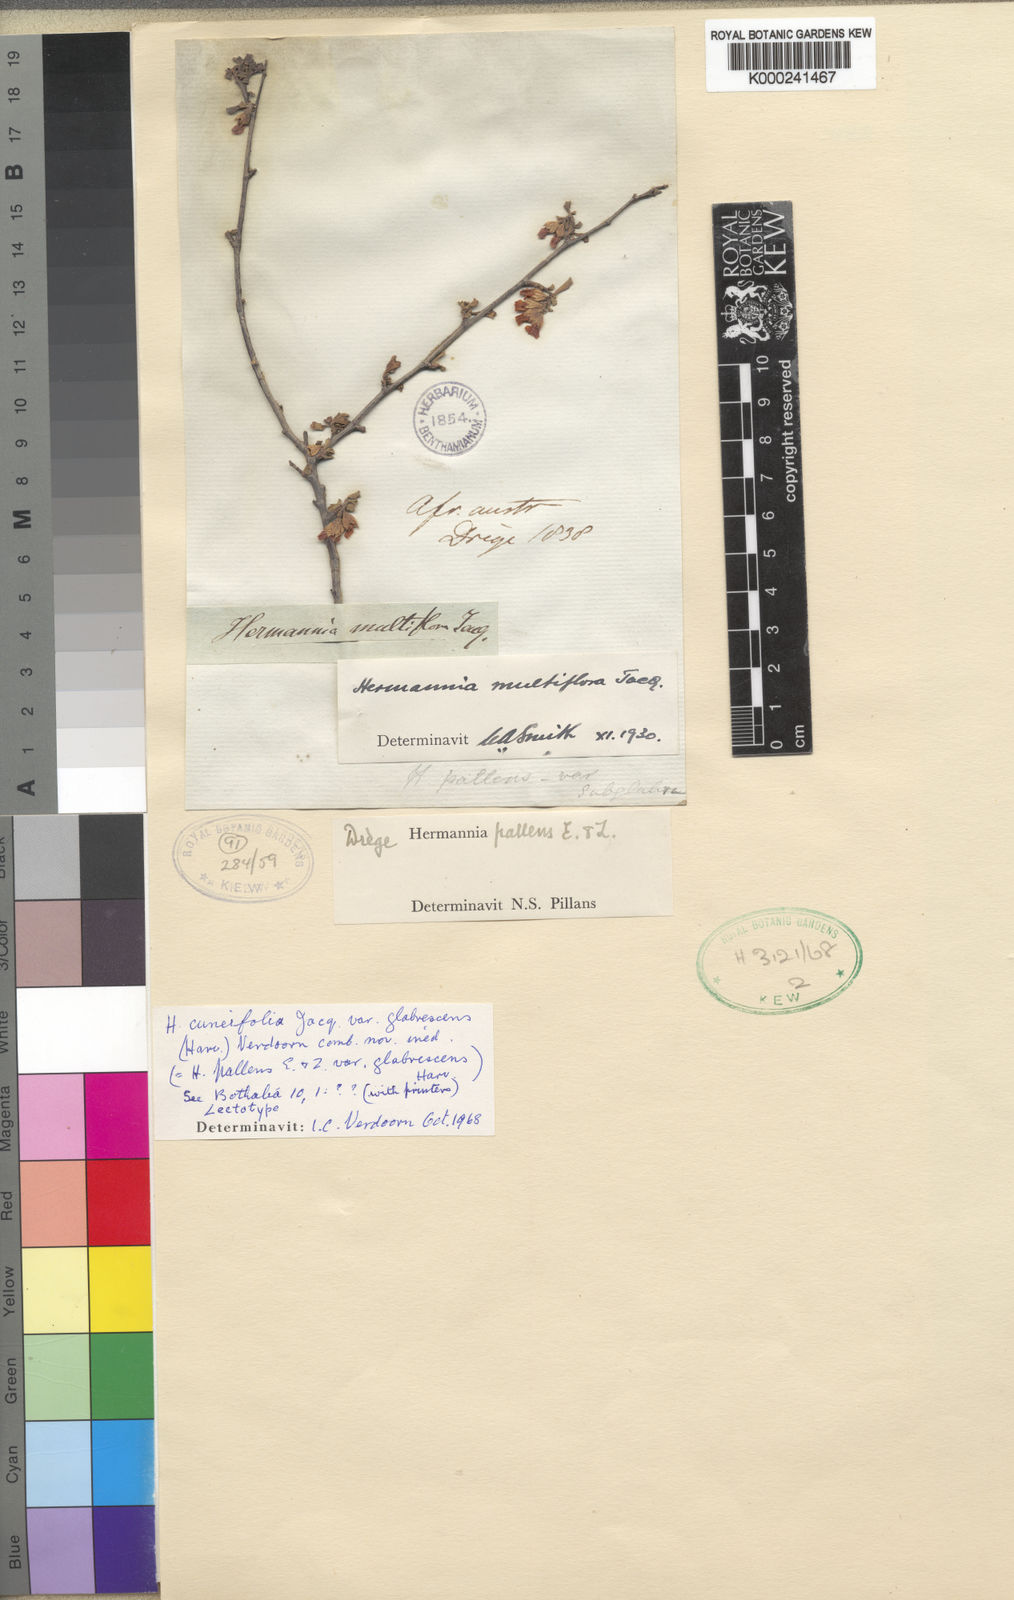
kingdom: Plantae
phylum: Tracheophyta
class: Magnoliopsida
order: Malvales
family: Malvaceae
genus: Hermannia
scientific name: Hermannia cuneifolia
